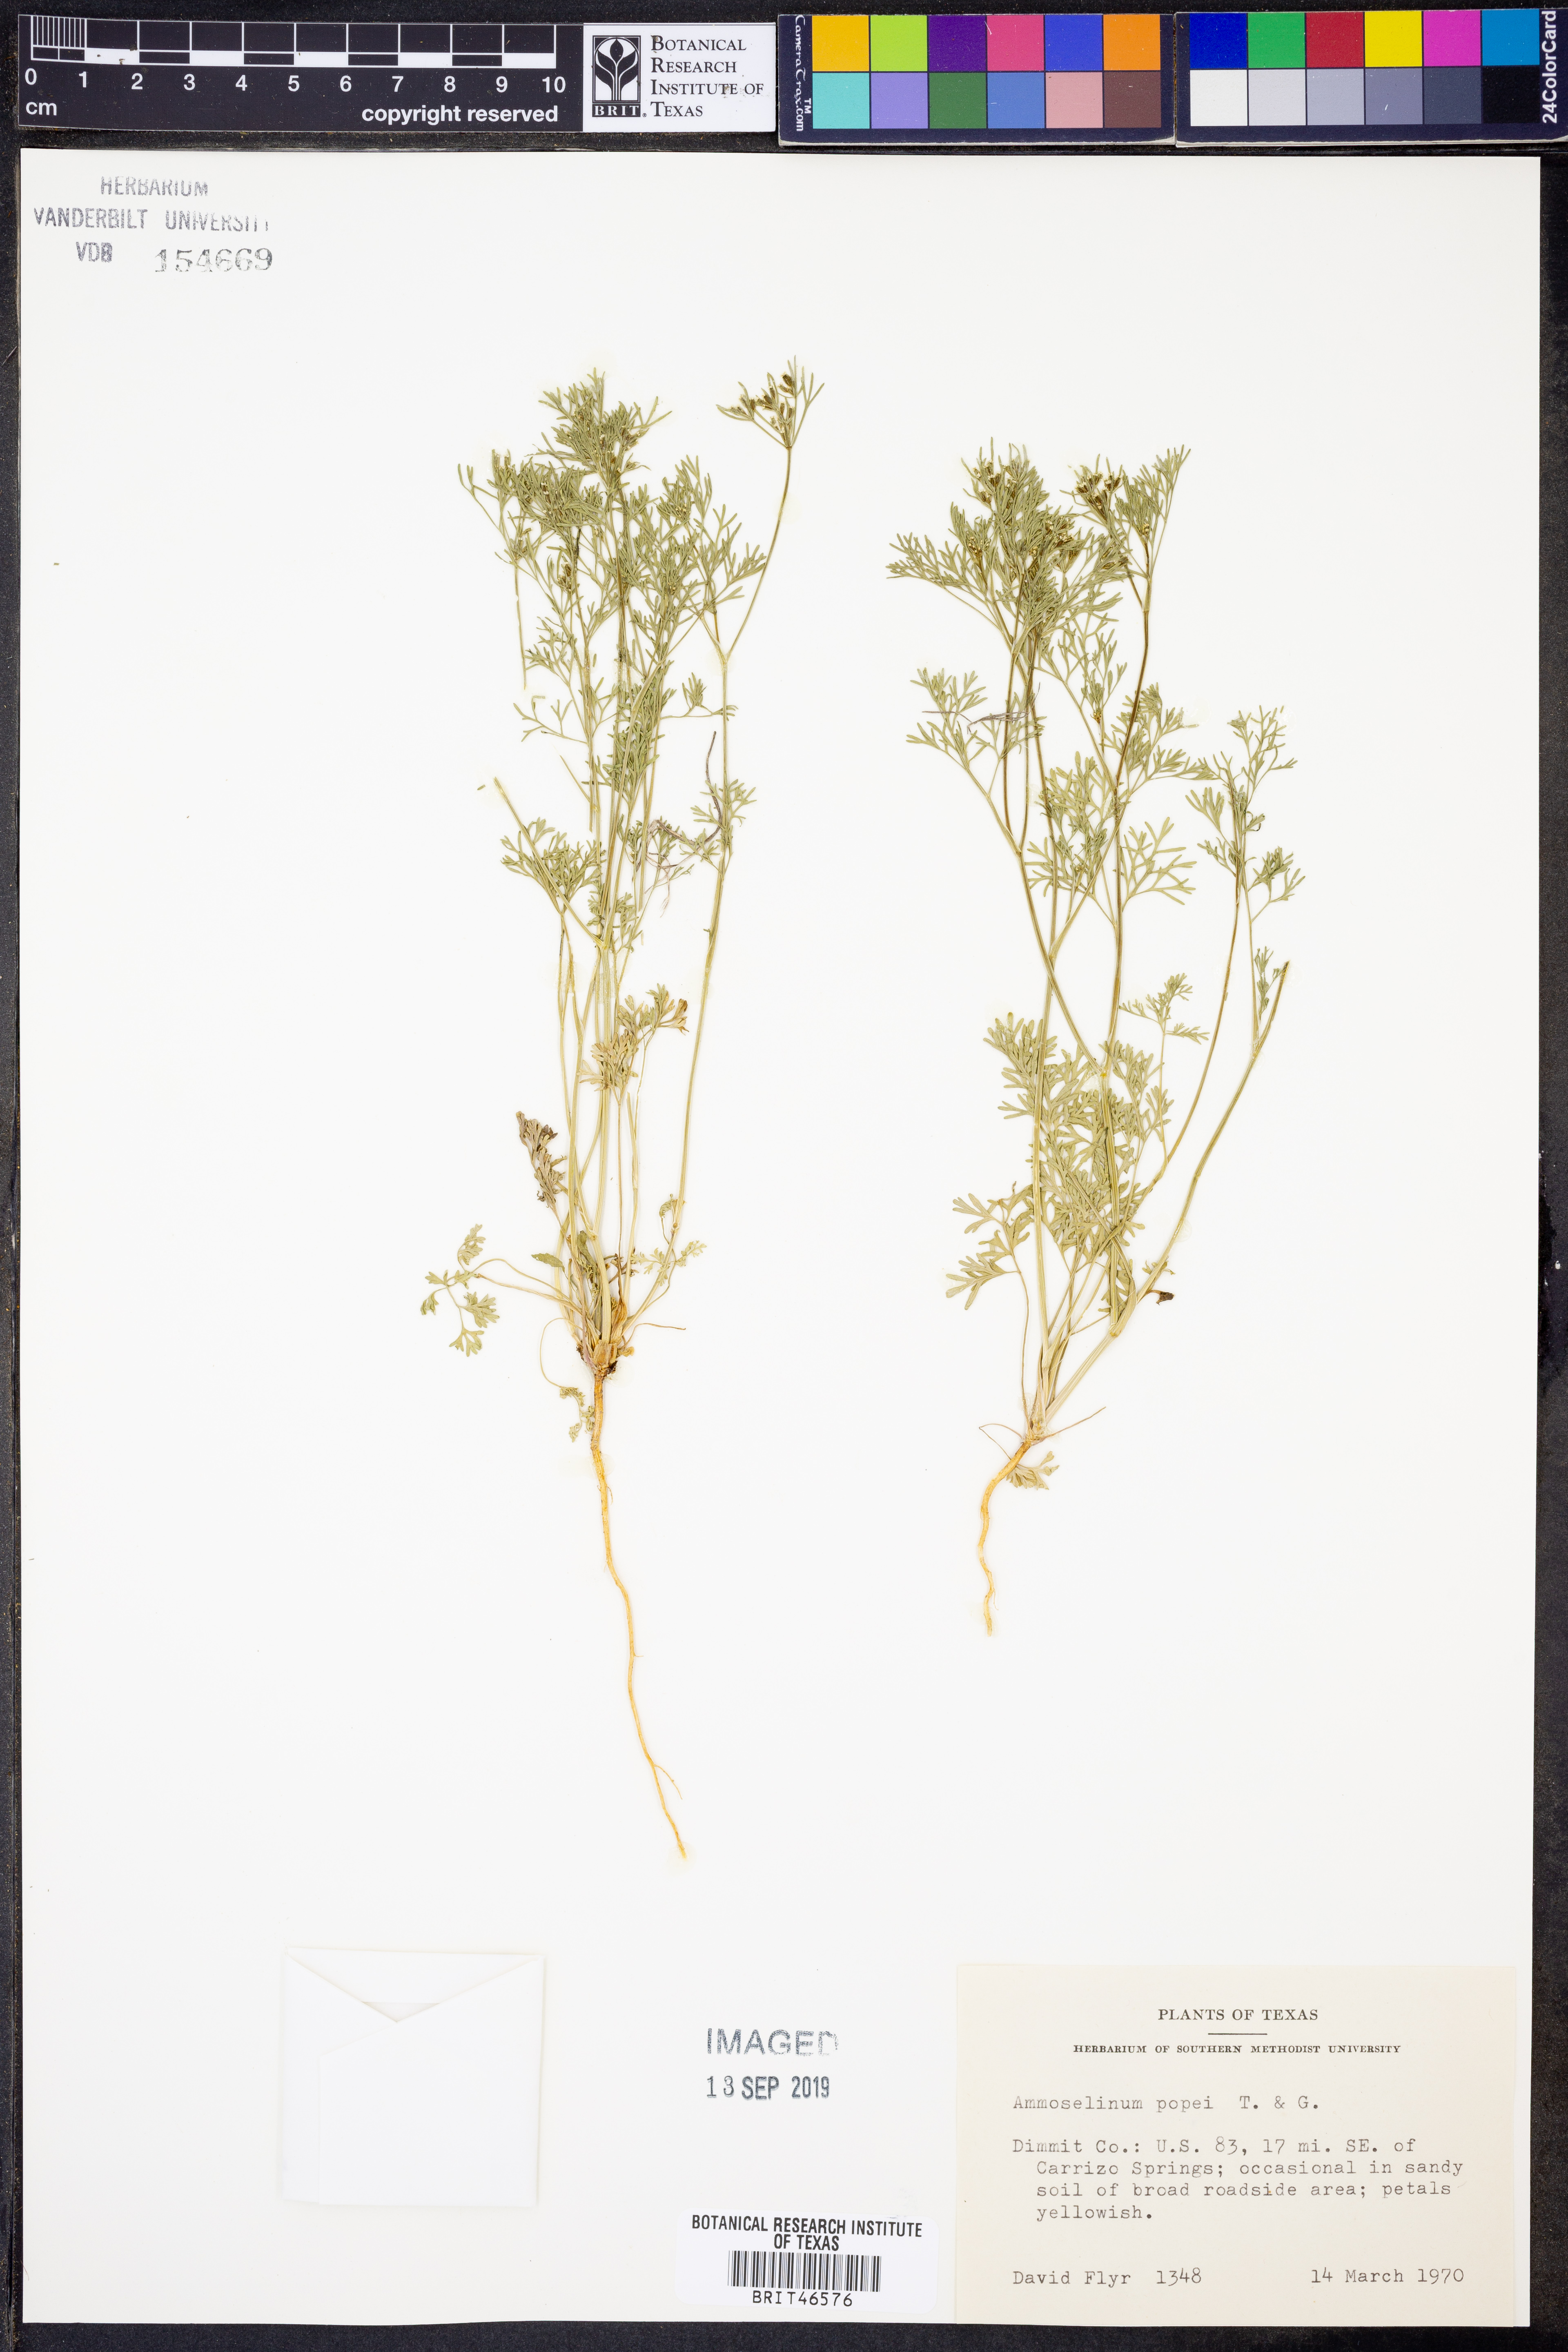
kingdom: Plantae
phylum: Tracheophyta
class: Magnoliopsida
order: Apiales
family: Apiaceae
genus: Ammoselinum
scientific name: Ammoselinum popei
